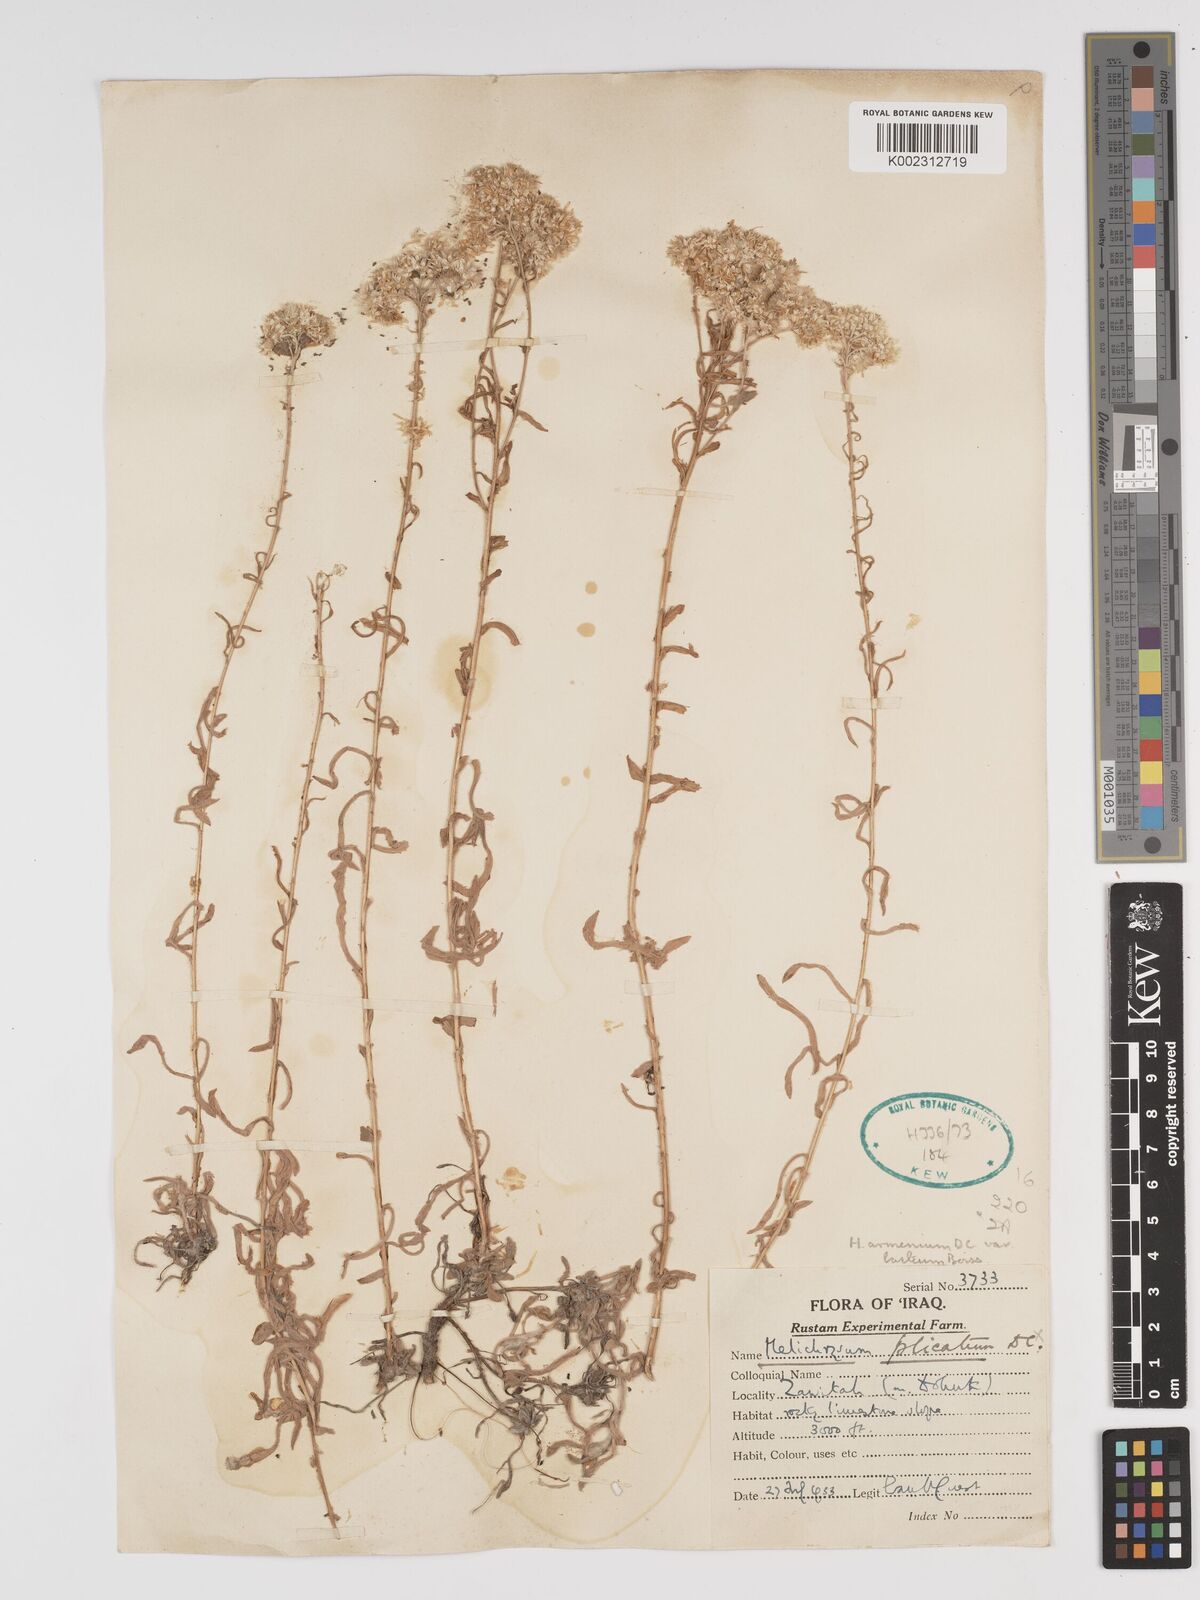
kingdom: Plantae
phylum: Tracheophyta
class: Magnoliopsida
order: Asterales
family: Asteraceae
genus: Helichrysum
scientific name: Helichrysum armenium
